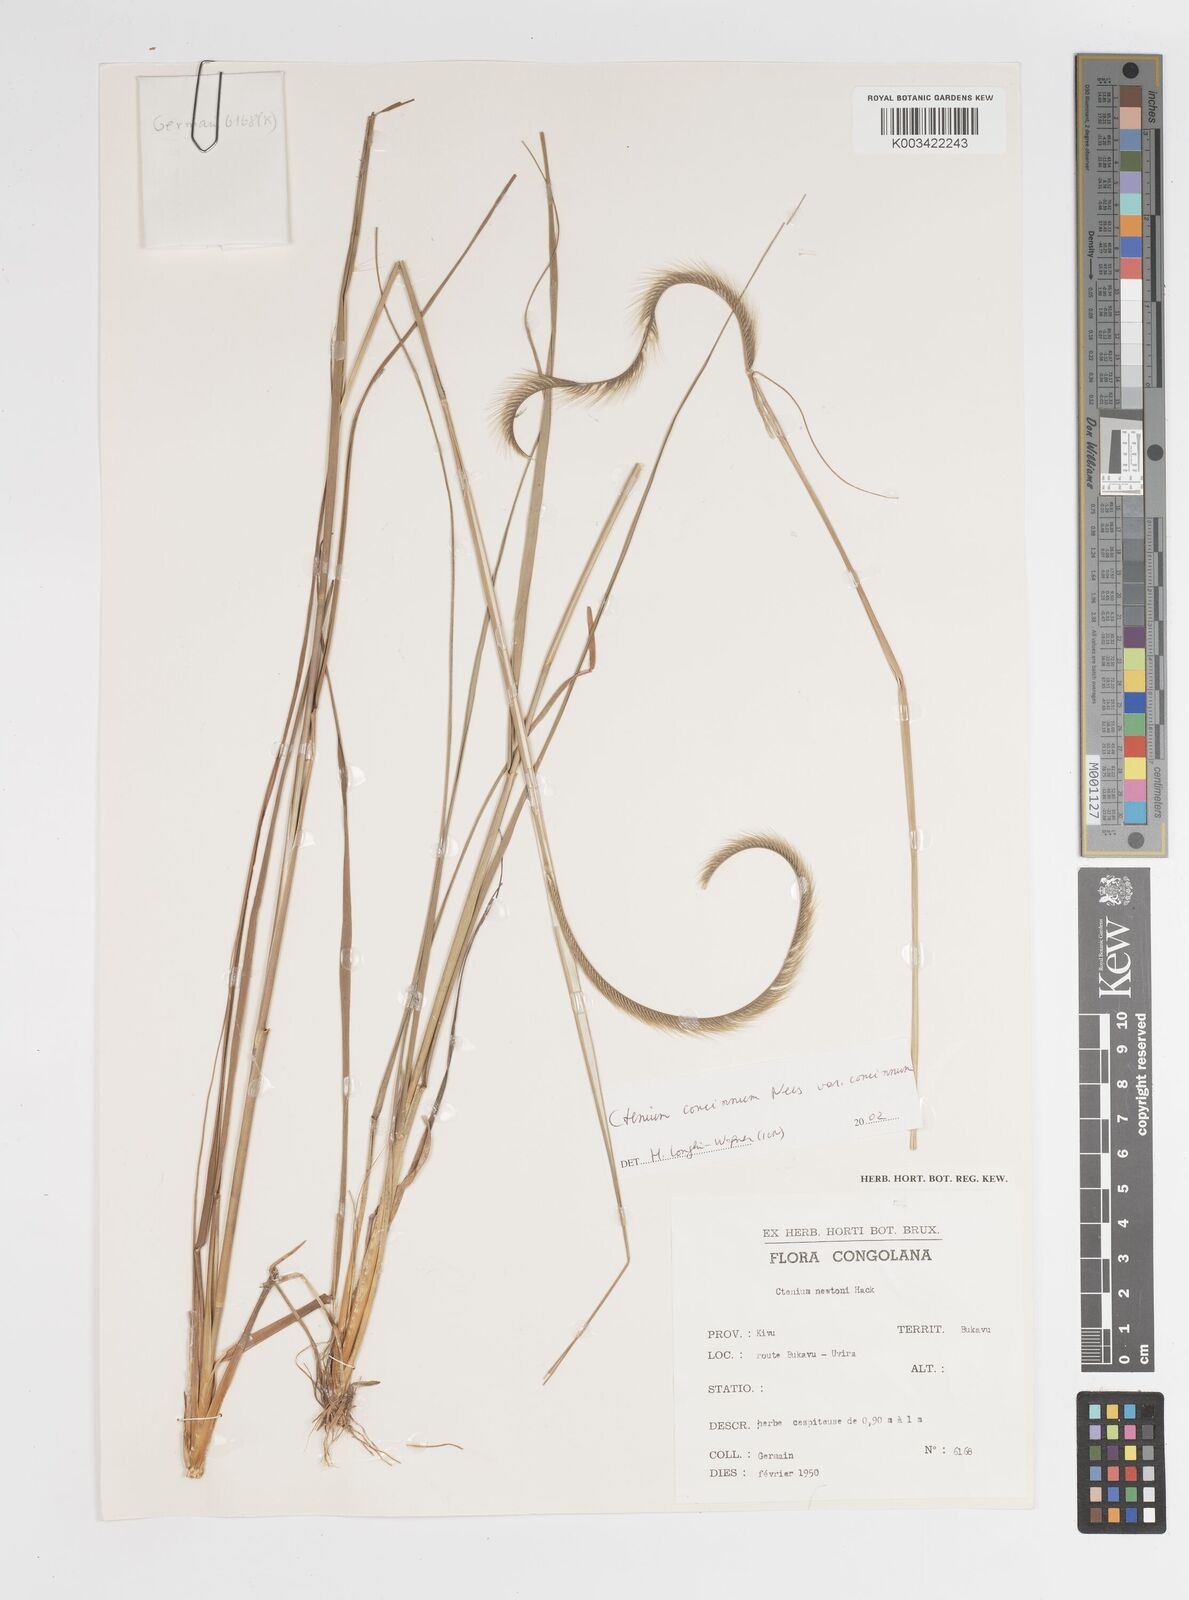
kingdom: Plantae
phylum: Tracheophyta
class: Liliopsida
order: Poales
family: Poaceae
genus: Ctenium
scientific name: Ctenium concinnum
